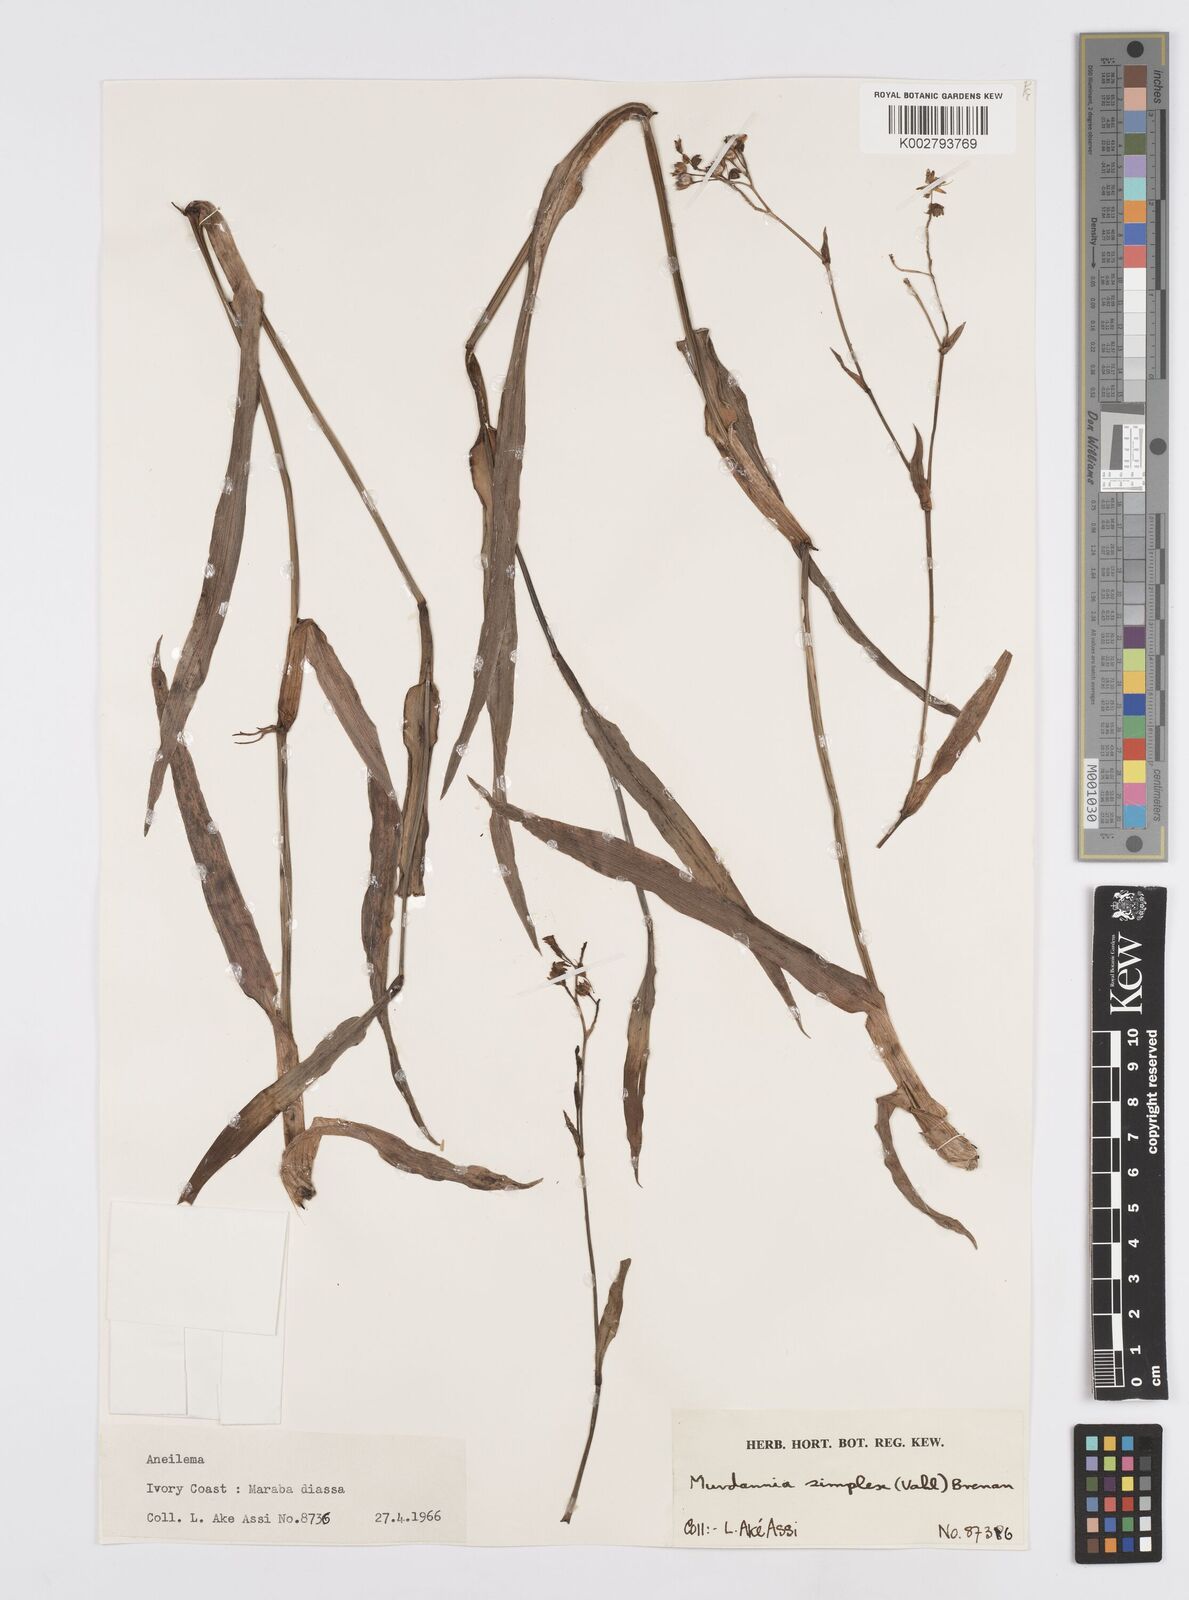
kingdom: Plantae
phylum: Tracheophyta
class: Liliopsida
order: Commelinales
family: Commelinaceae
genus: Murdannia
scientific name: Murdannia simplex
